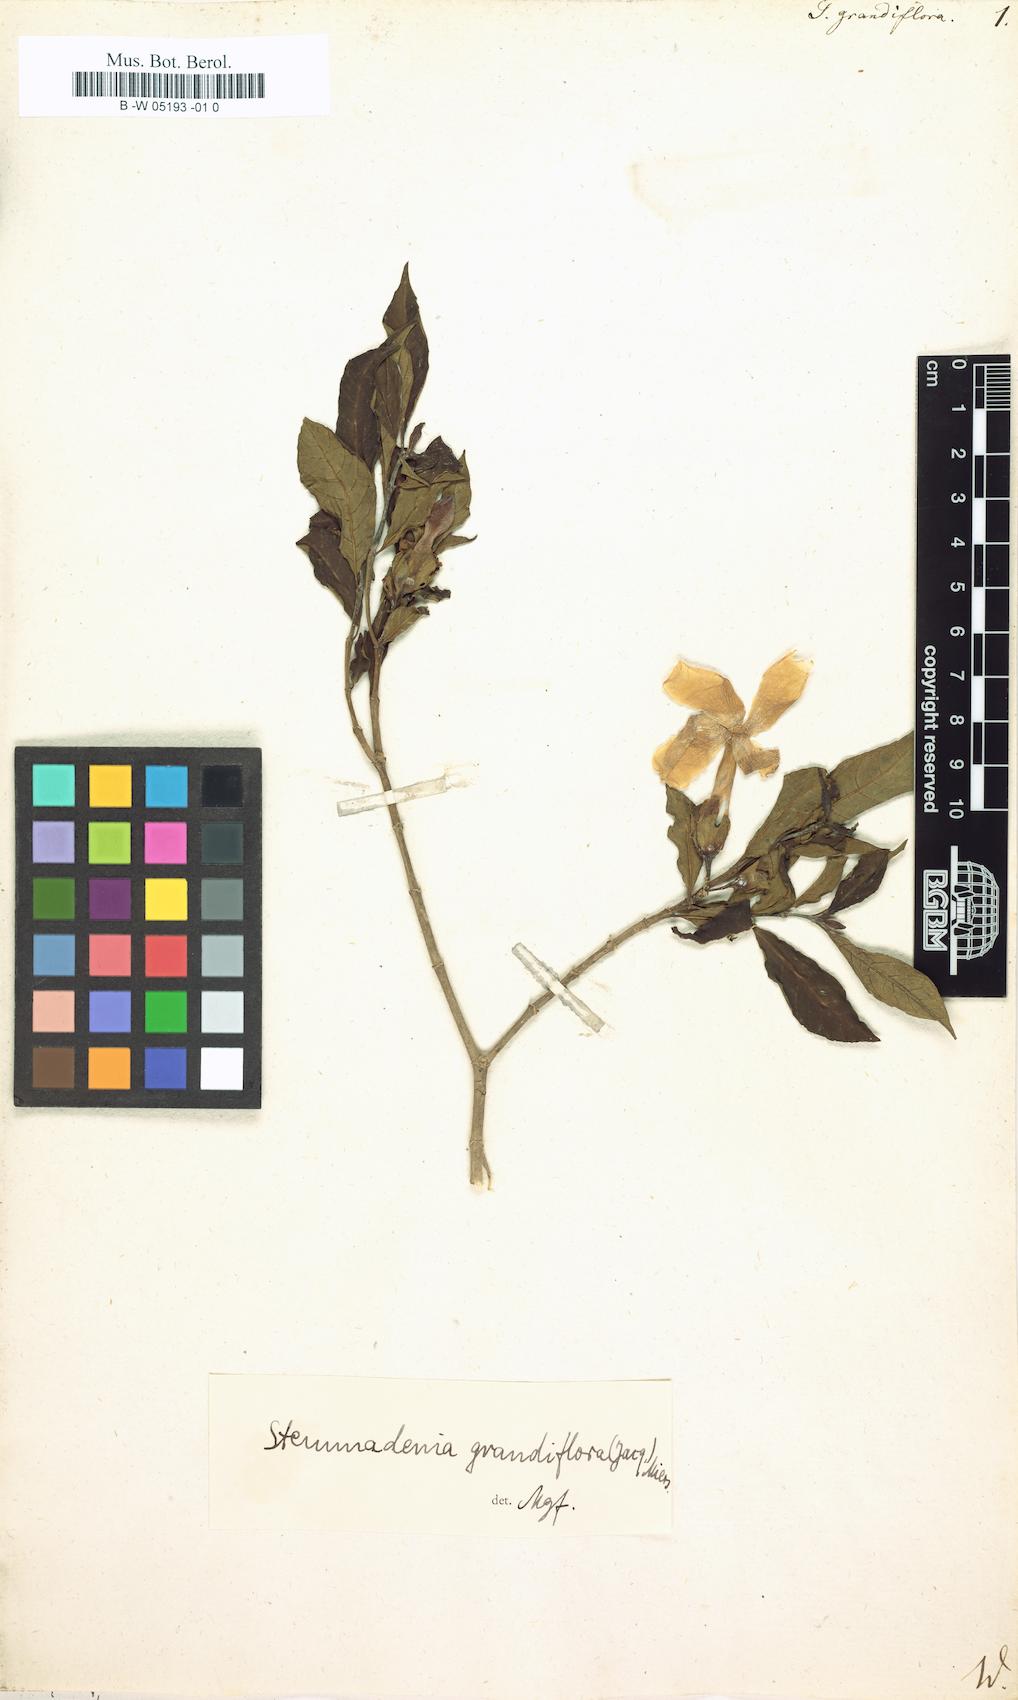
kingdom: Plantae
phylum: Tracheophyta
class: Magnoliopsida
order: Gentianales
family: Apocynaceae
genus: Tabernaemontana
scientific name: Tabernaemontana grandiflora
